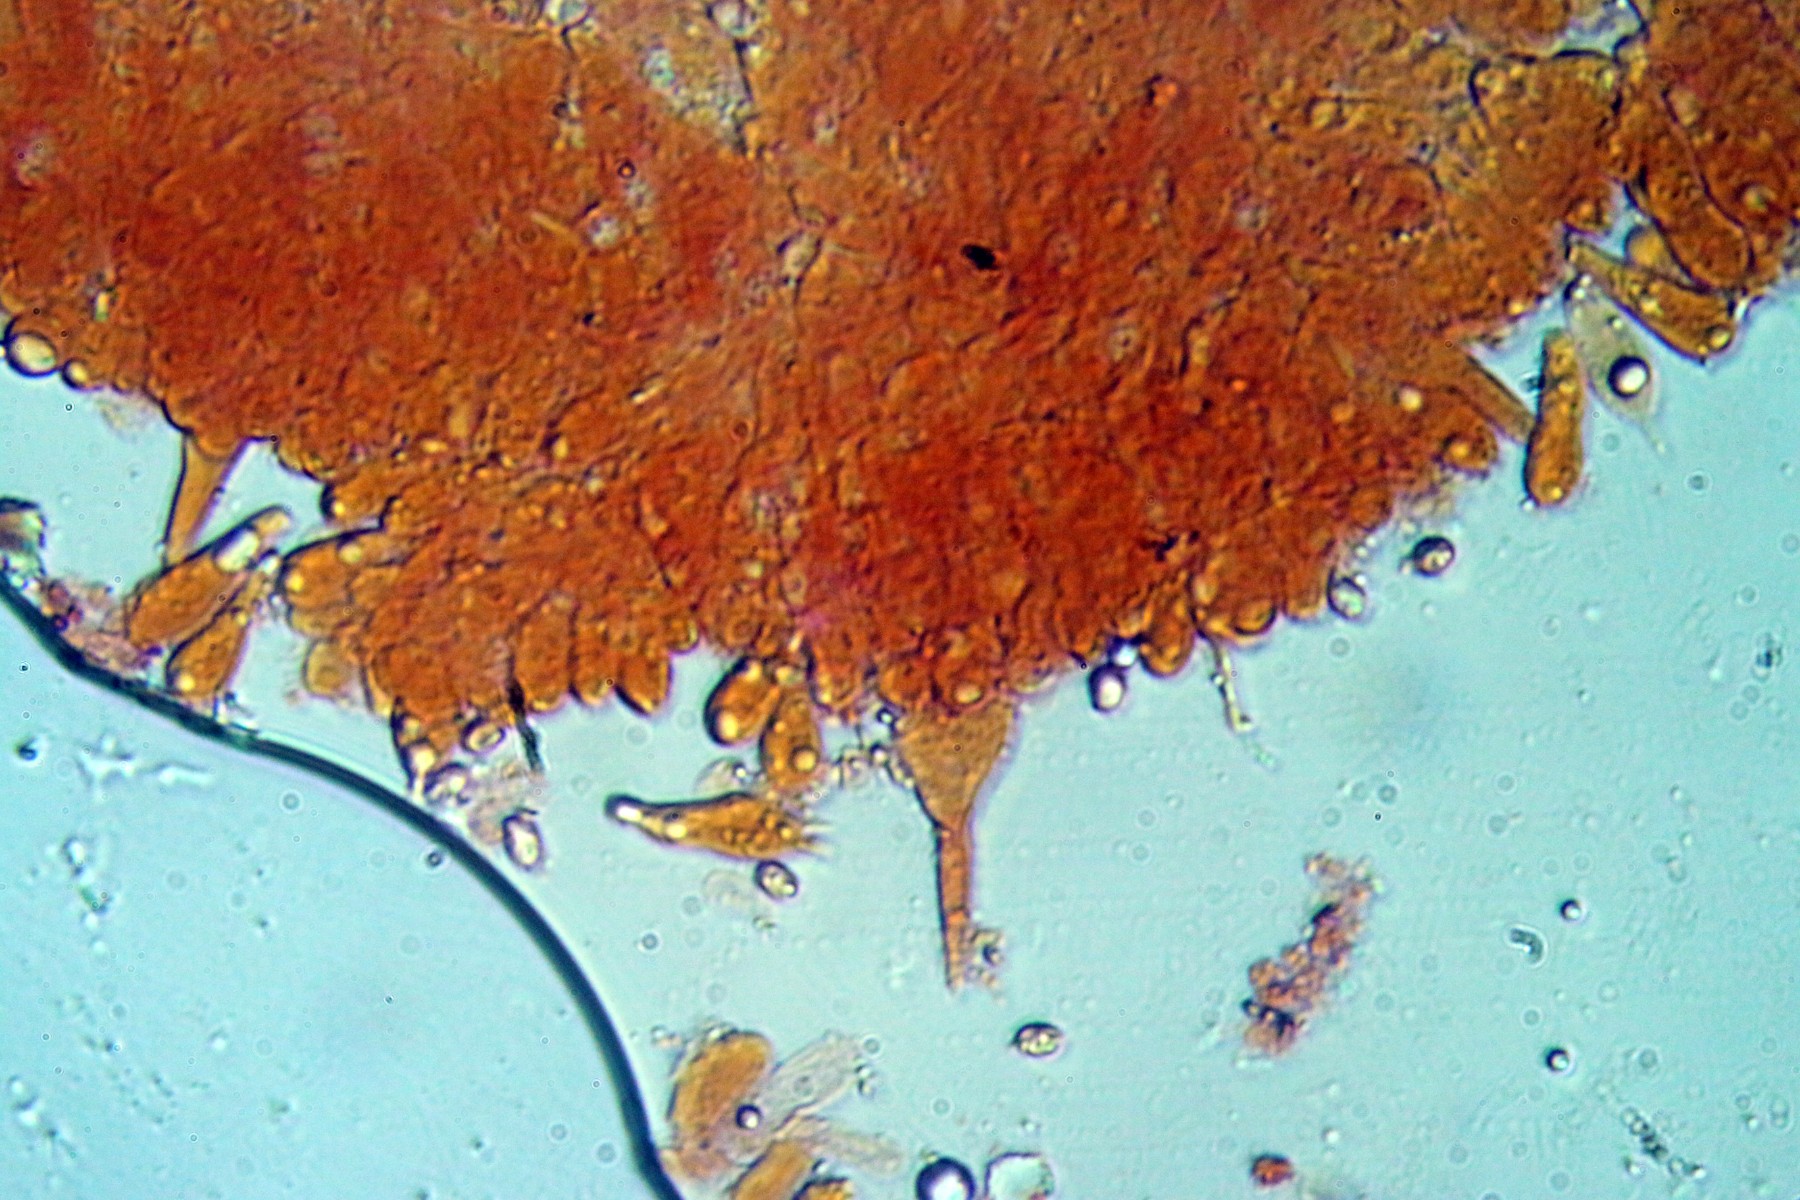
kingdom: Fungi
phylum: Basidiomycota
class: Agaricomycetes
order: Agaricales
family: Tricholomataceae
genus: Melanoleuca
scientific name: Melanoleuca exscissa
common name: gusten munkehat
